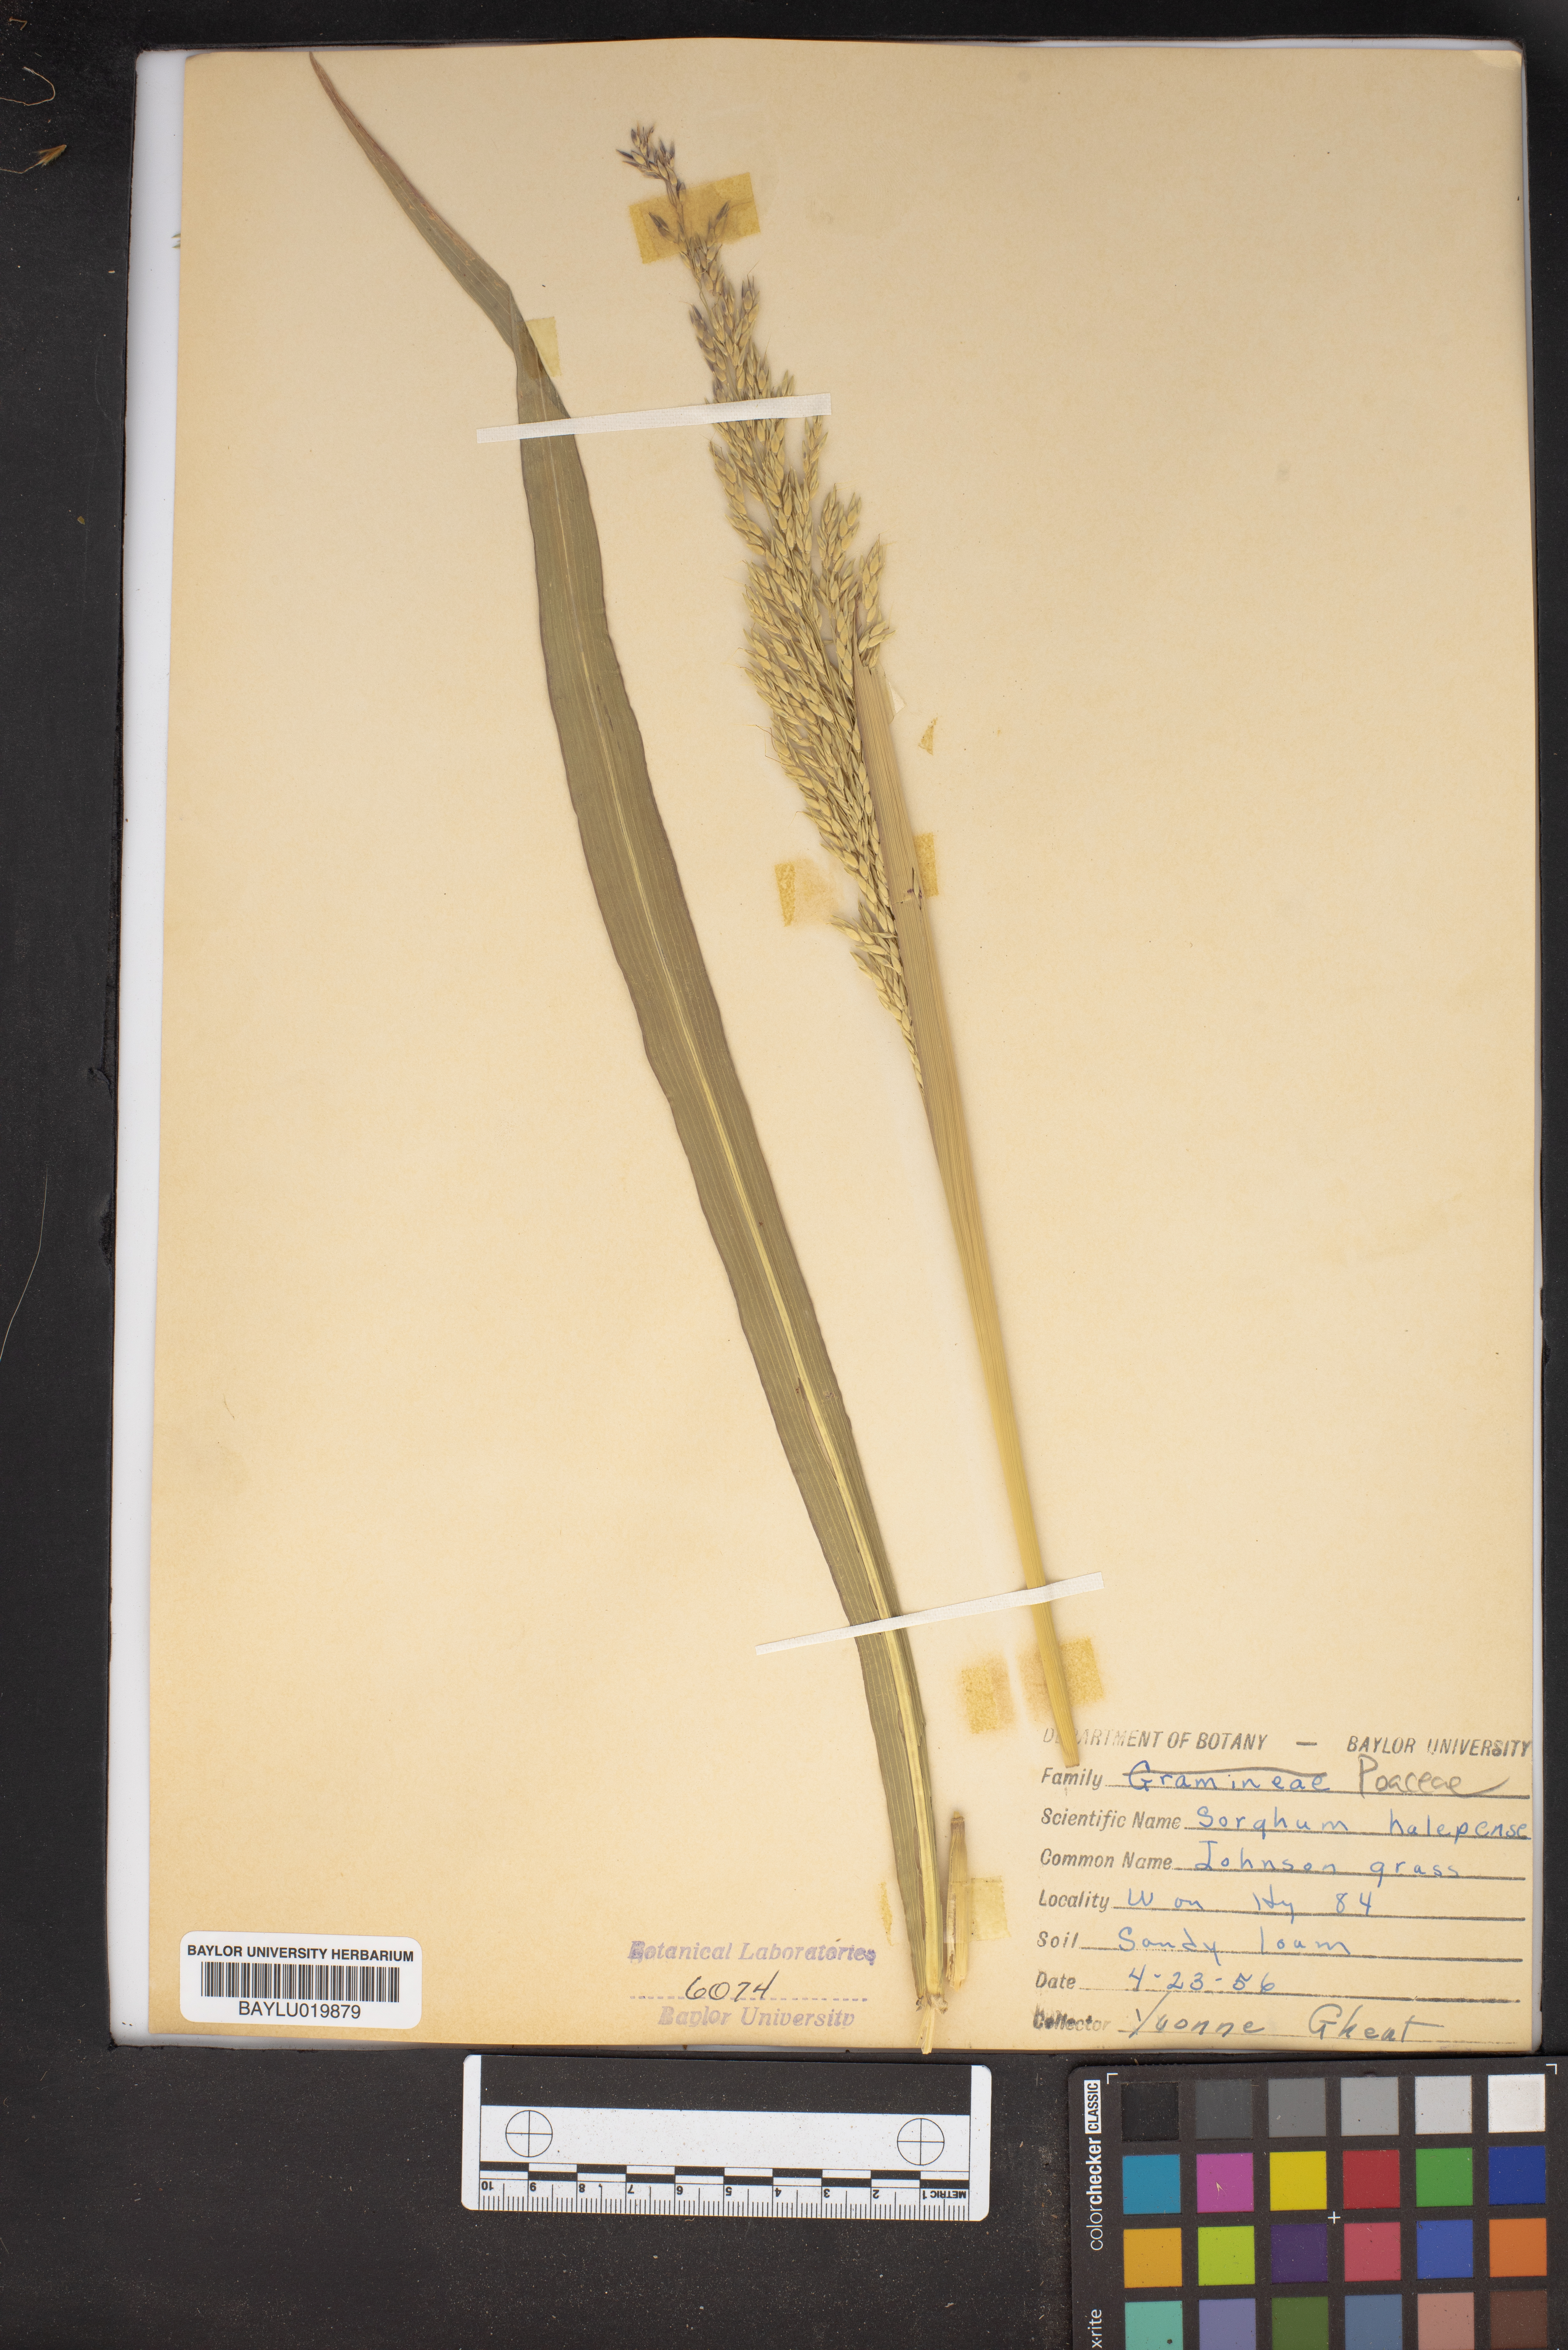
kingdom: Plantae
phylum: Tracheophyta
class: Liliopsida
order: Poales
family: Poaceae
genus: Sorghum
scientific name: Sorghum halepense
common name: Johnson-grass
